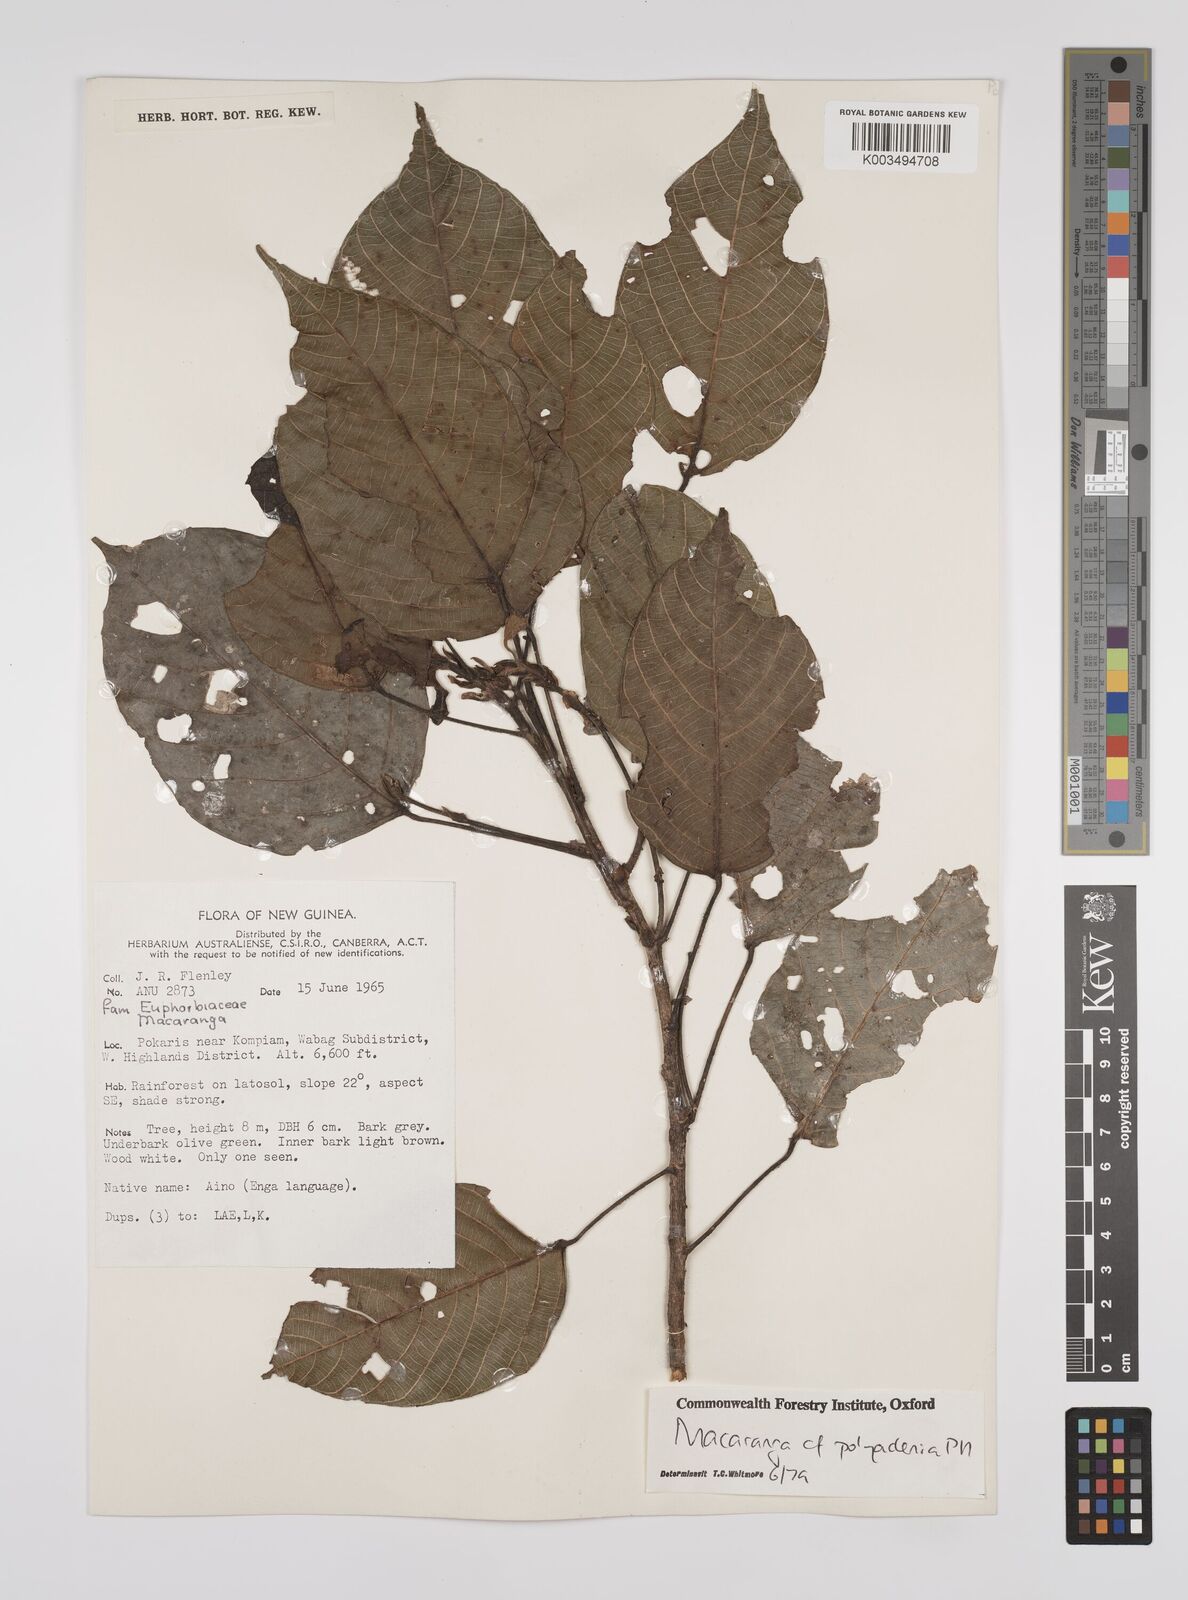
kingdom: Plantae
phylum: Tracheophyta
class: Magnoliopsida
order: Malpighiales
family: Euphorbiaceae
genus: Macaranga
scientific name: Macaranga polyadenia
